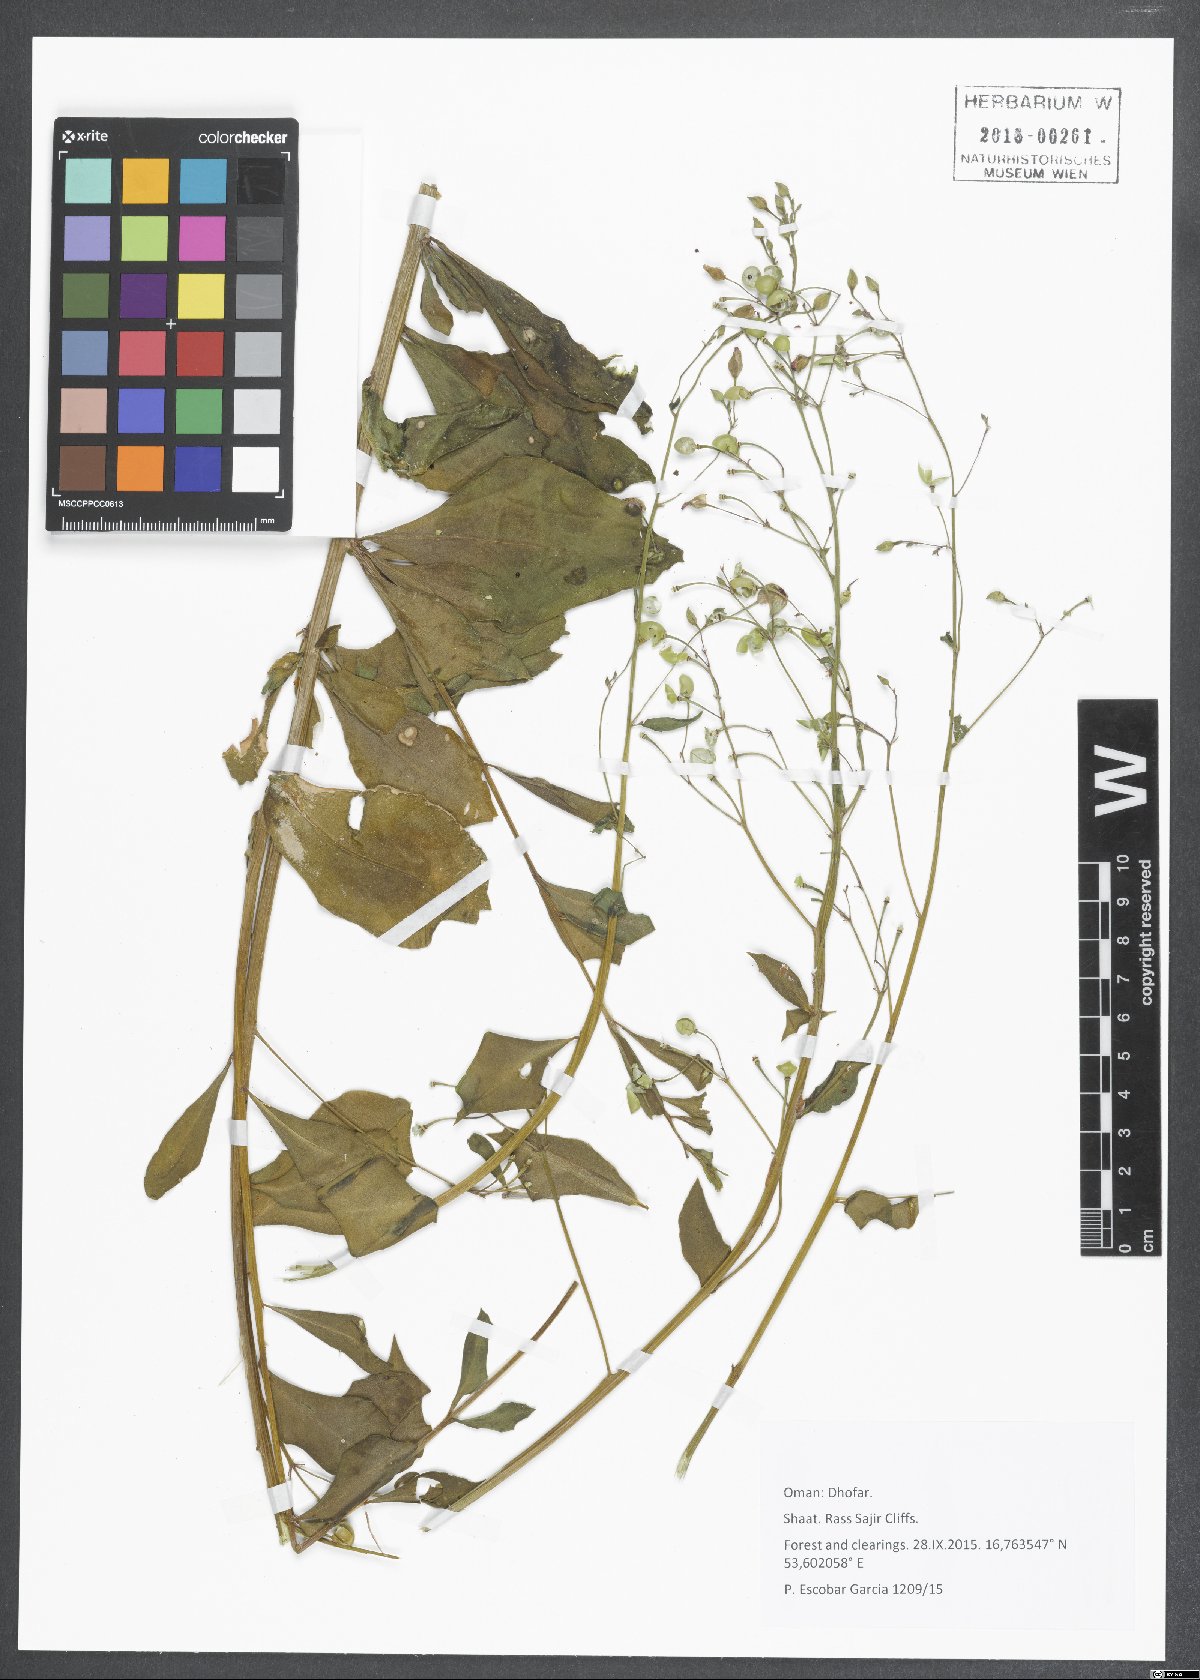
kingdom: Plantae
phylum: Tracheophyta
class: Magnoliopsida
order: Caryophyllales
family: Talinaceae
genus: Talinum
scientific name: Talinum paniculatum
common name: Jewels of opar
